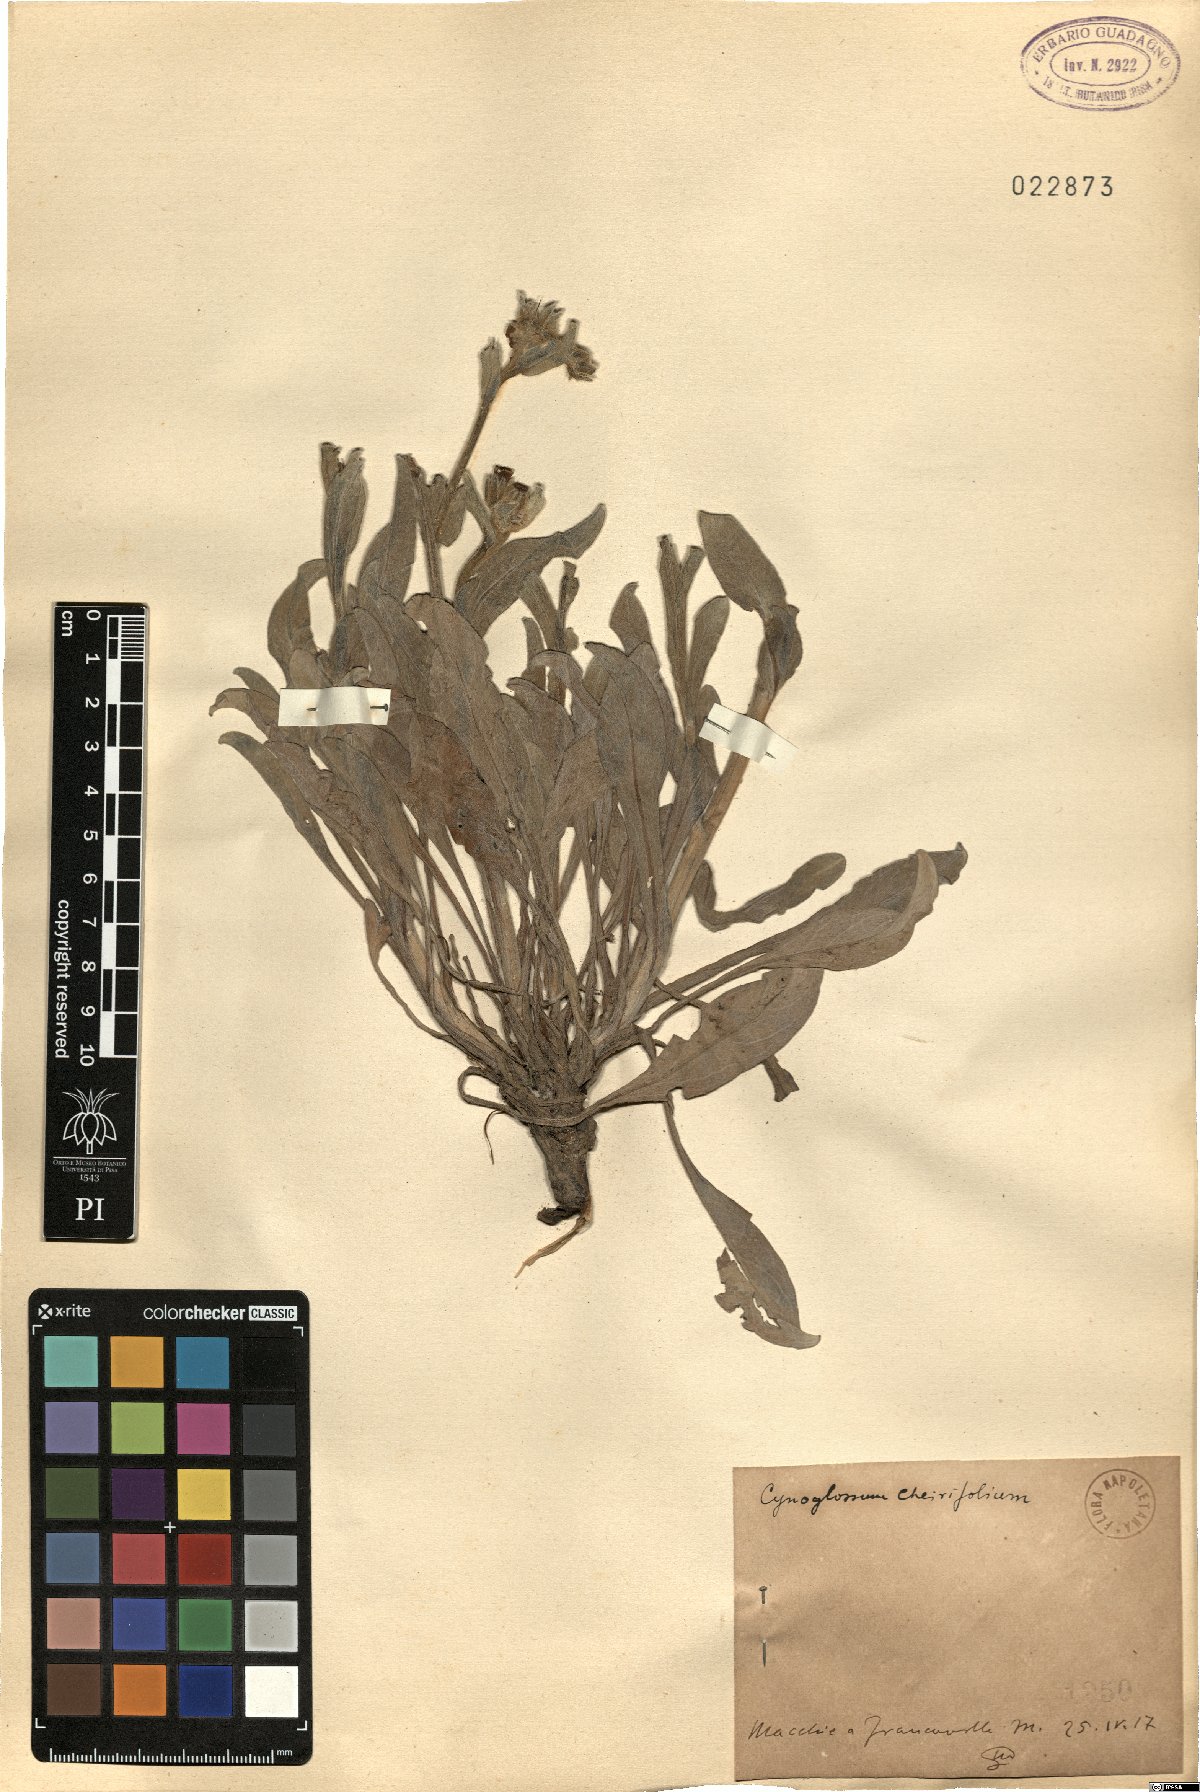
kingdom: Plantae
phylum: Tracheophyta
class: Magnoliopsida
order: Boraginales
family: Boraginaceae
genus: Pardoglossum
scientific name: Pardoglossum cheirifolium
